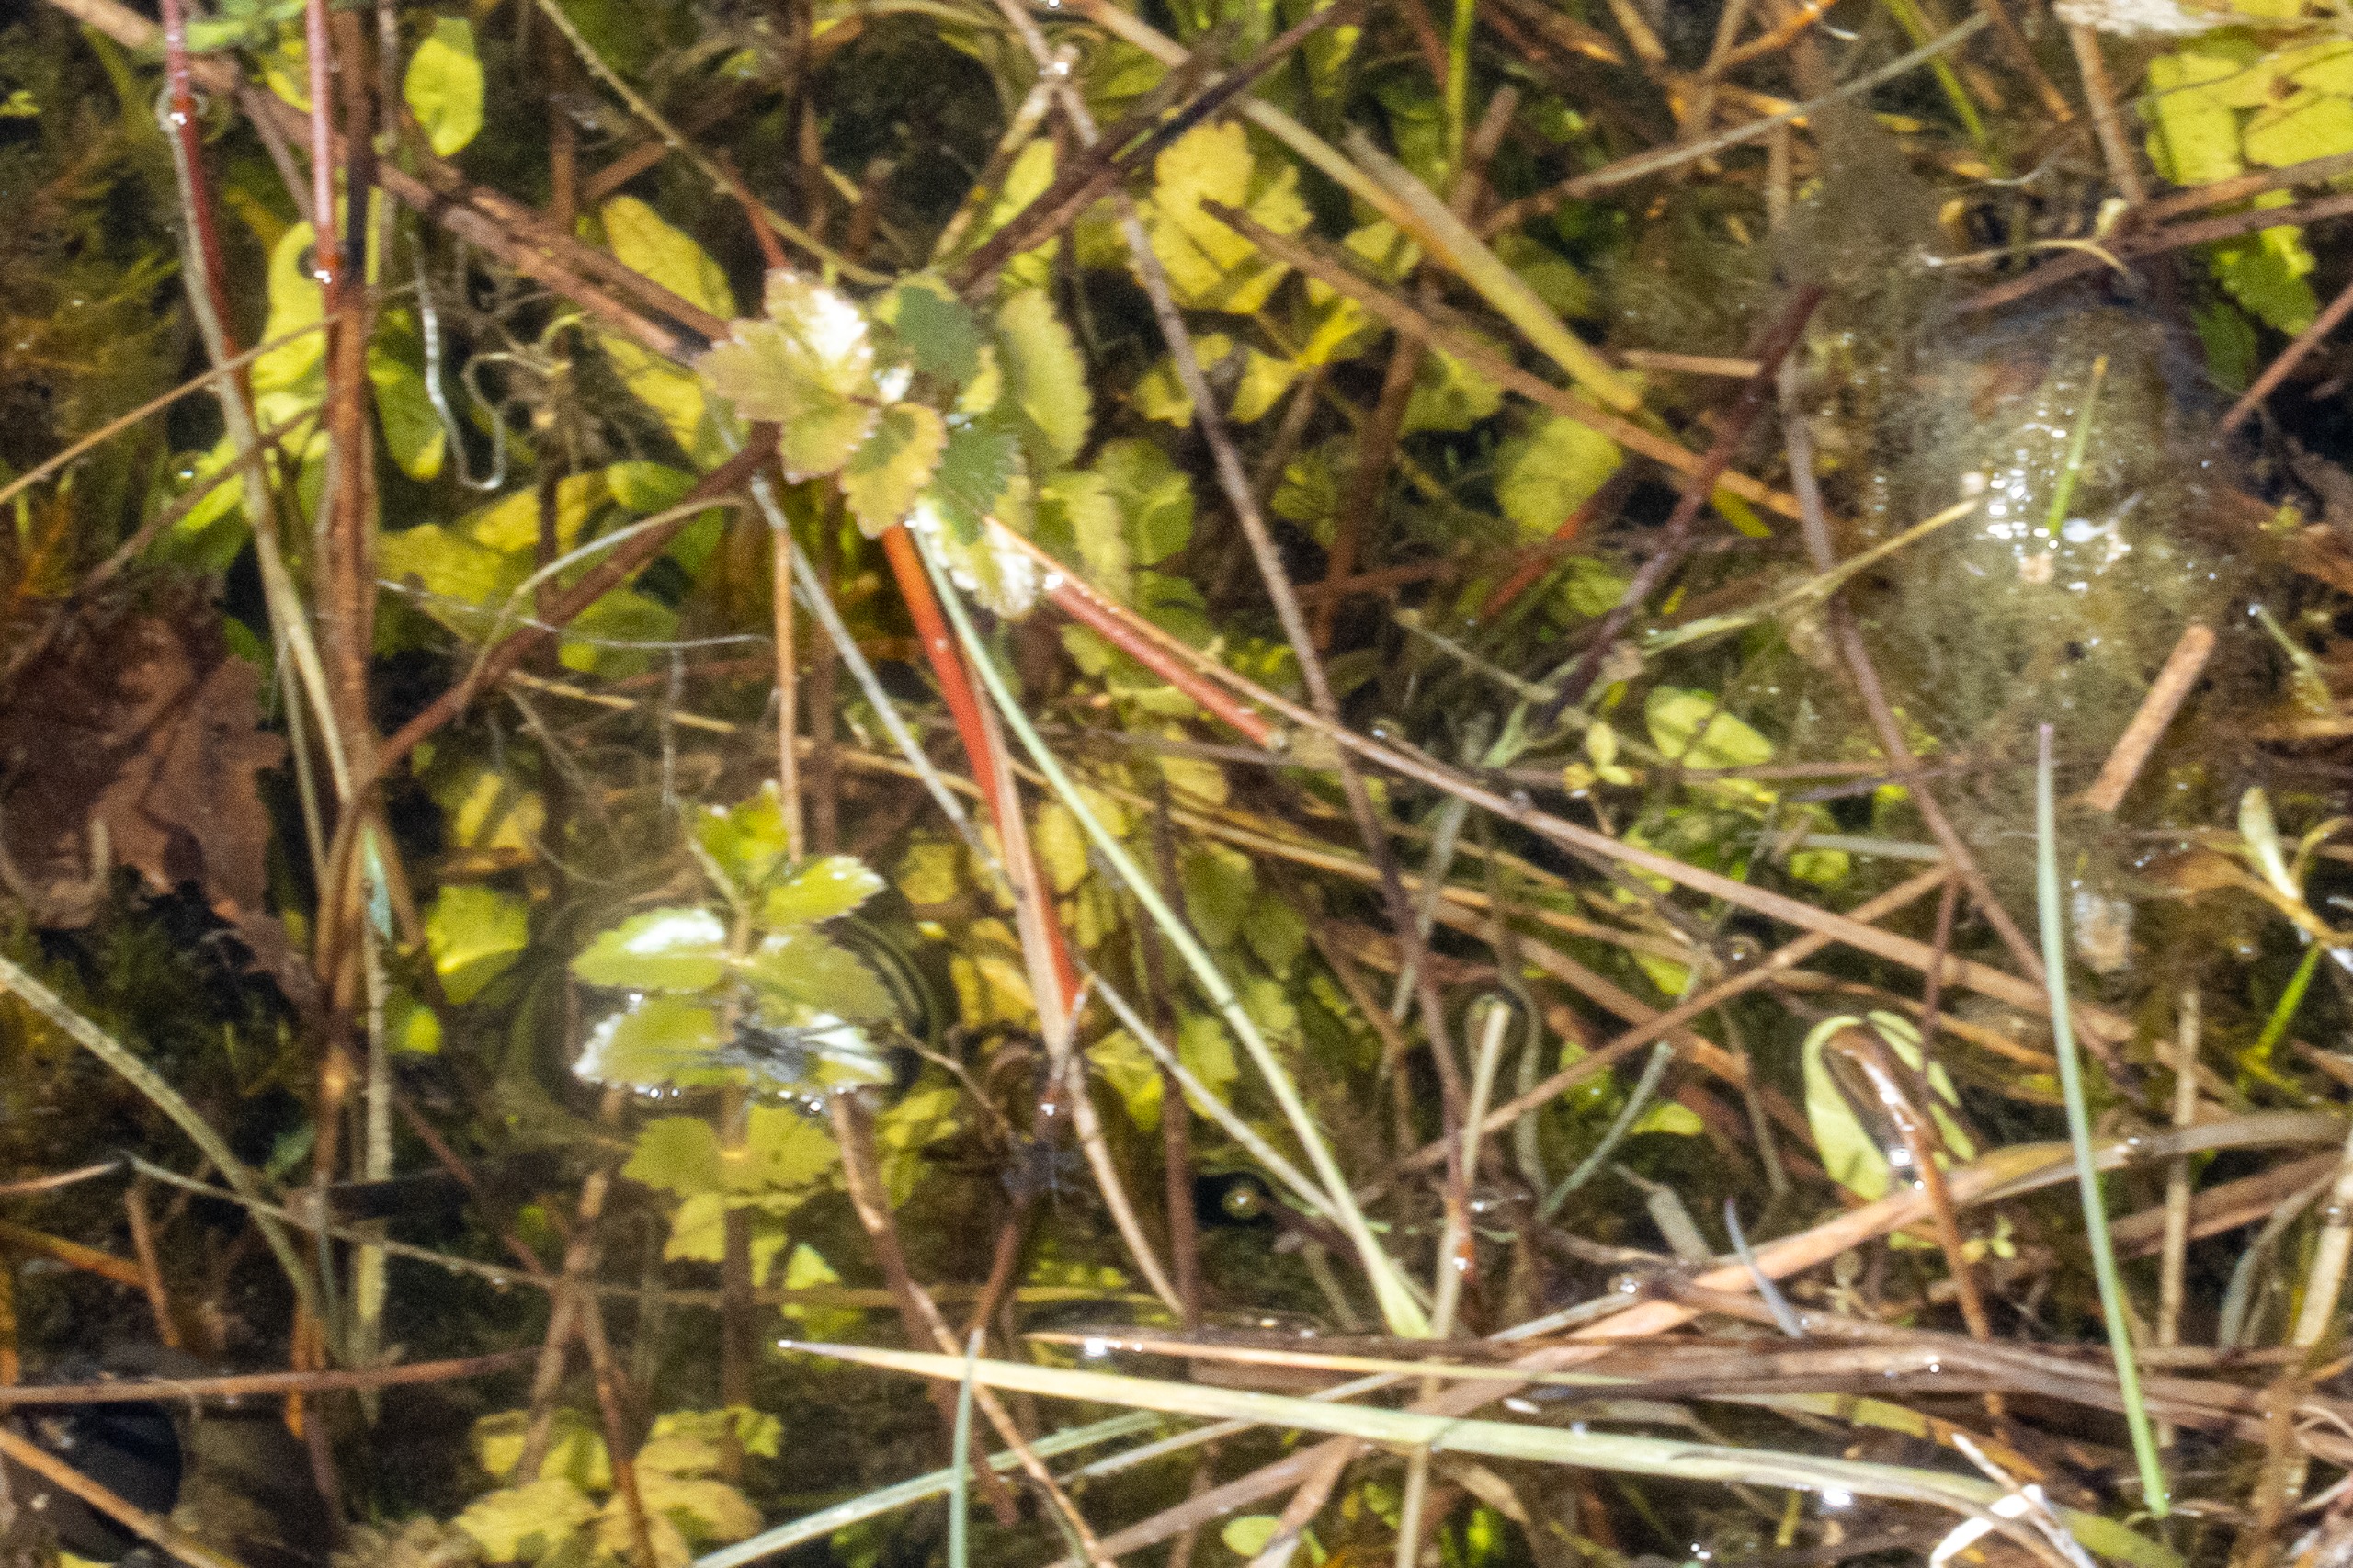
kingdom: Animalia
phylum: Arthropoda
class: Arachnida
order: Araneae
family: Lycosidae
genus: Pardosa
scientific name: Pardosa
